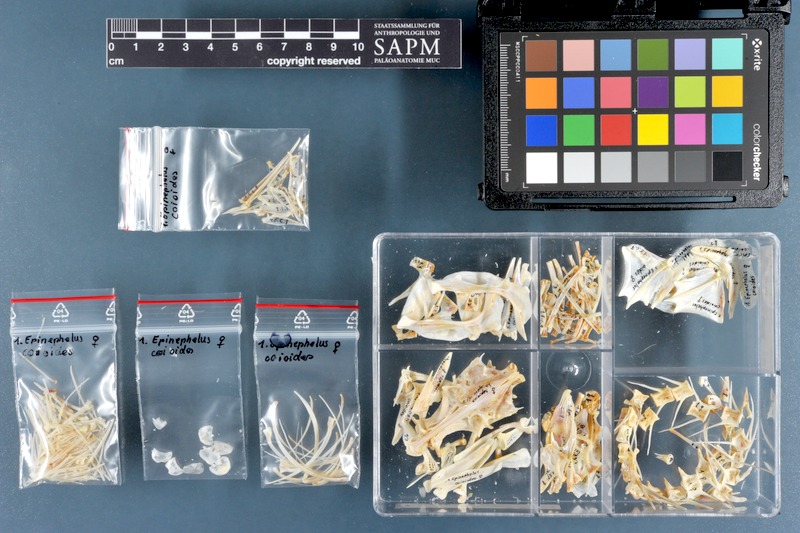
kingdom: Animalia
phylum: Chordata
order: Perciformes
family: Serranidae
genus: Epinephelus
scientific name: Epinephelus coioides
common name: Orange-spotted grouper
